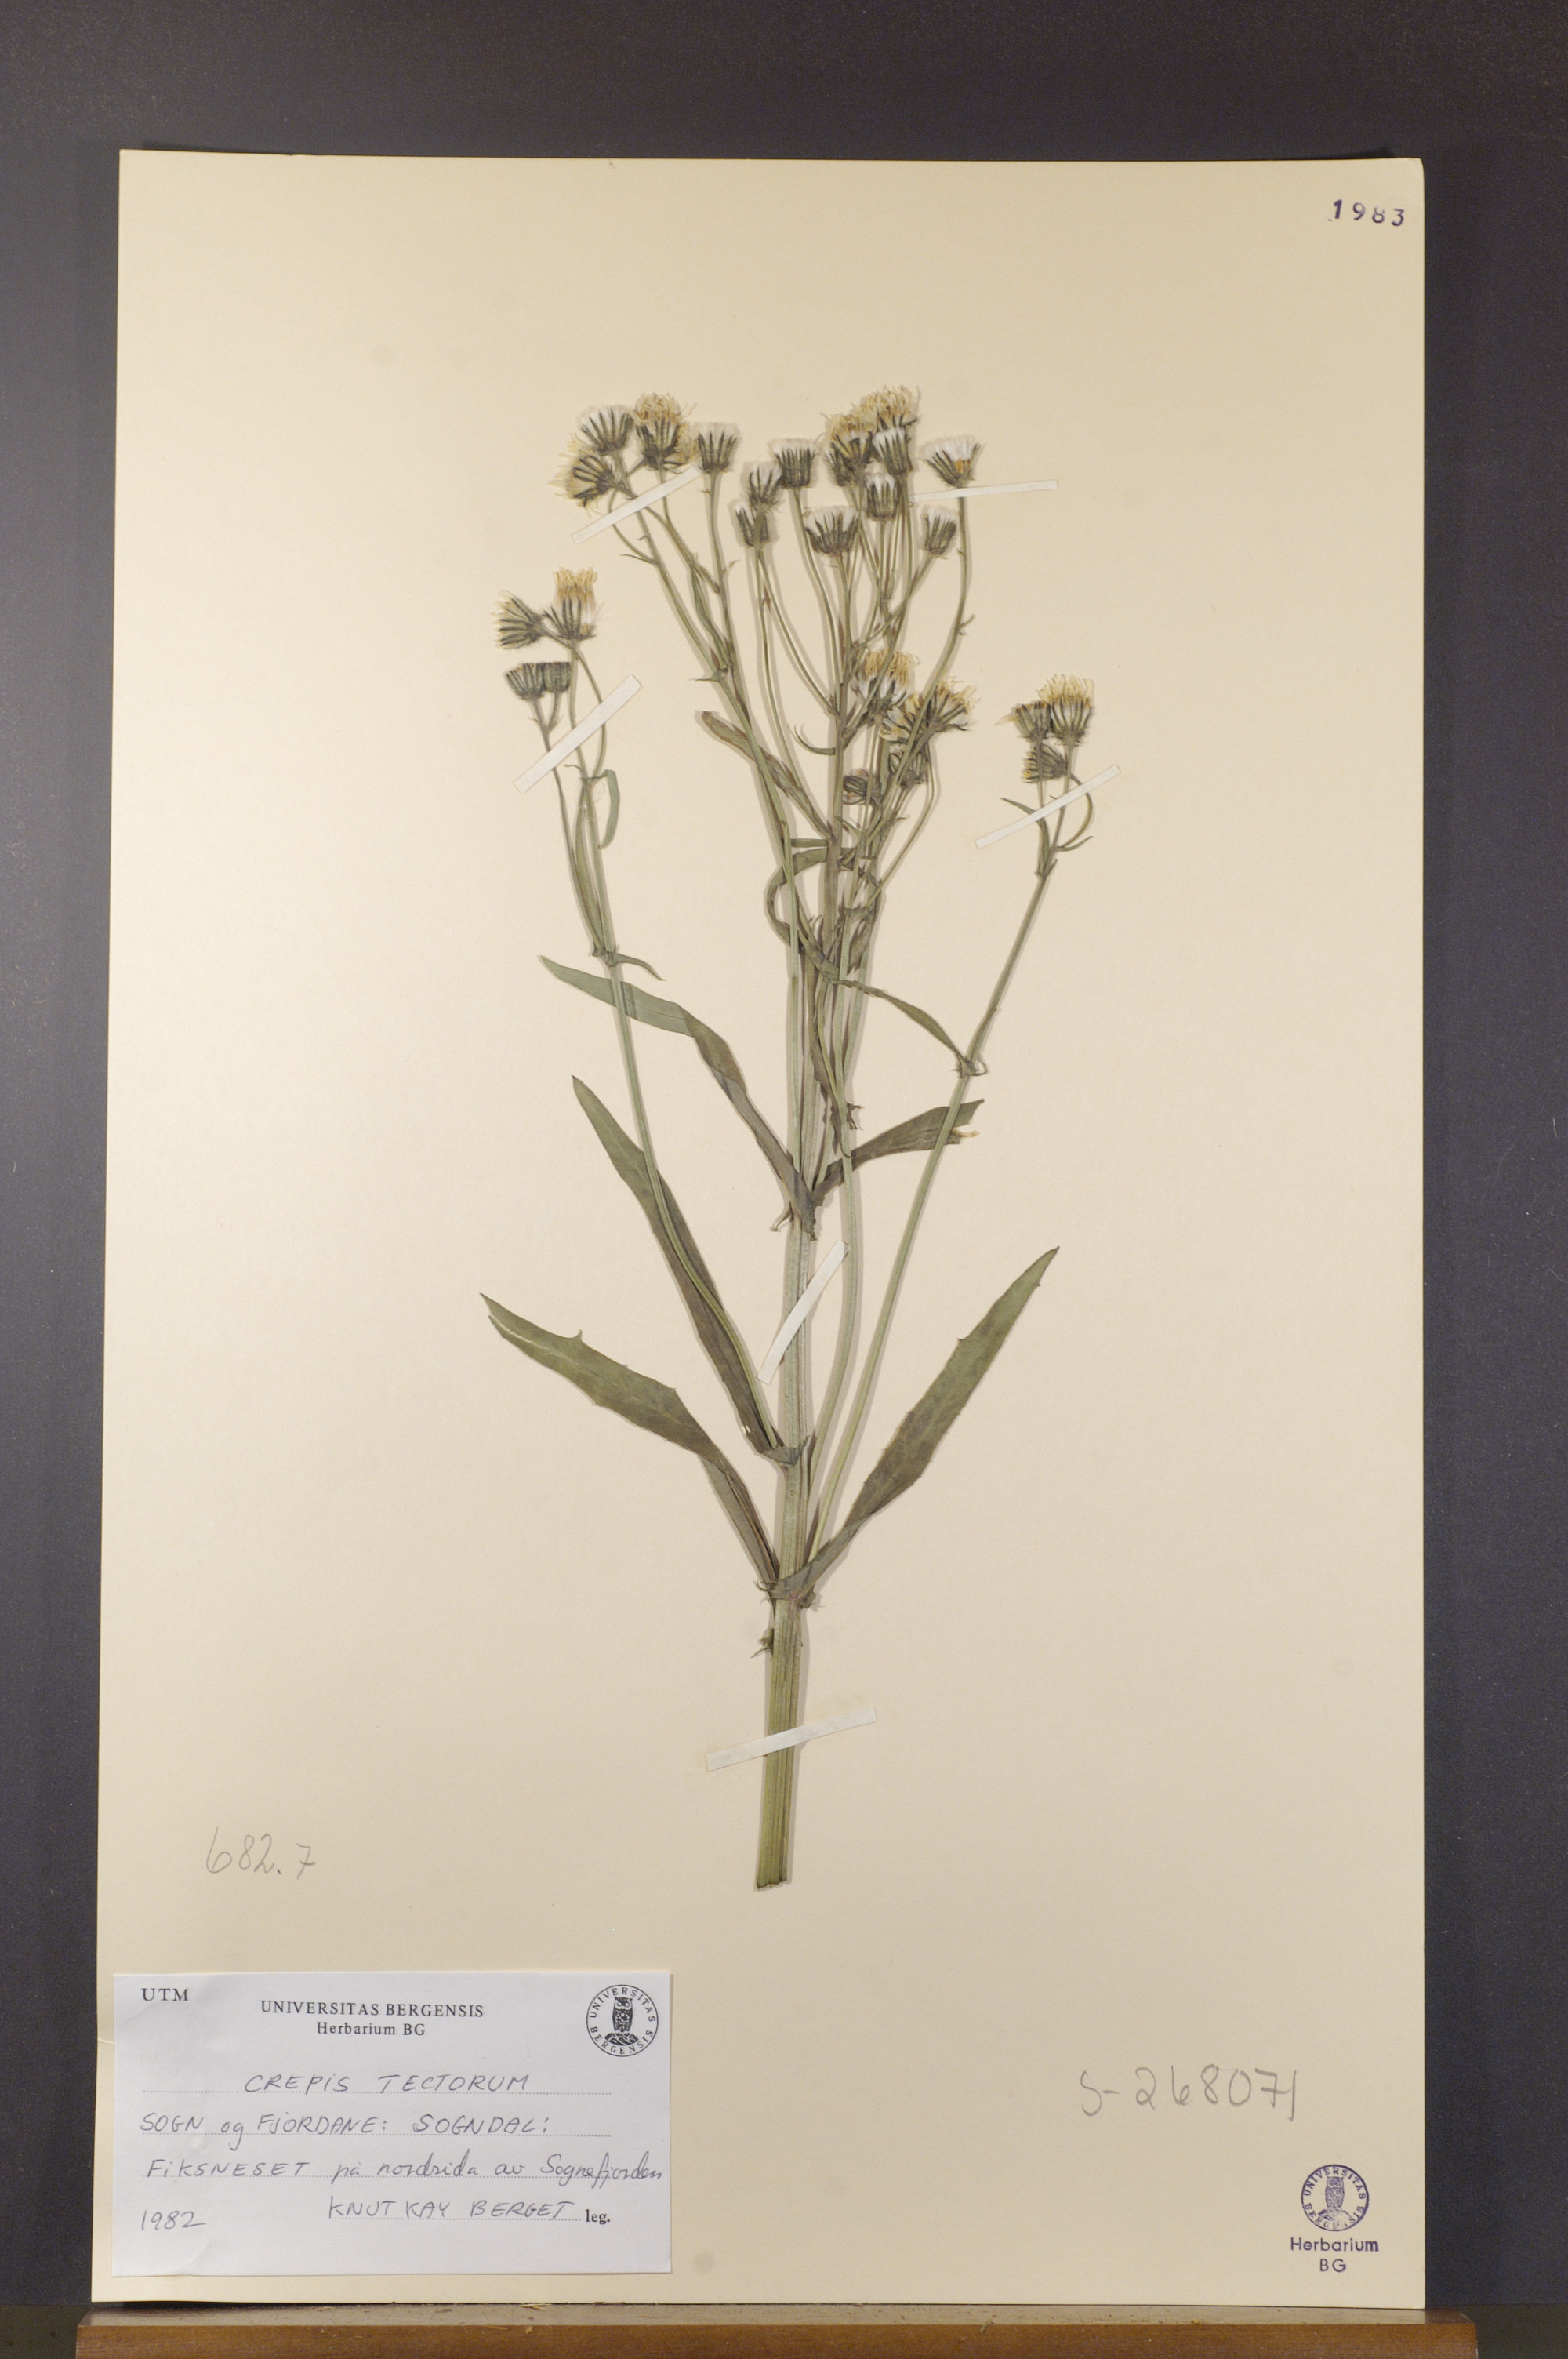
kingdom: Plantae
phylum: Tracheophyta
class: Magnoliopsida
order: Asterales
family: Asteraceae
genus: Crepis
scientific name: Crepis tectorum
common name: Narrow-leaved hawk's-beard
